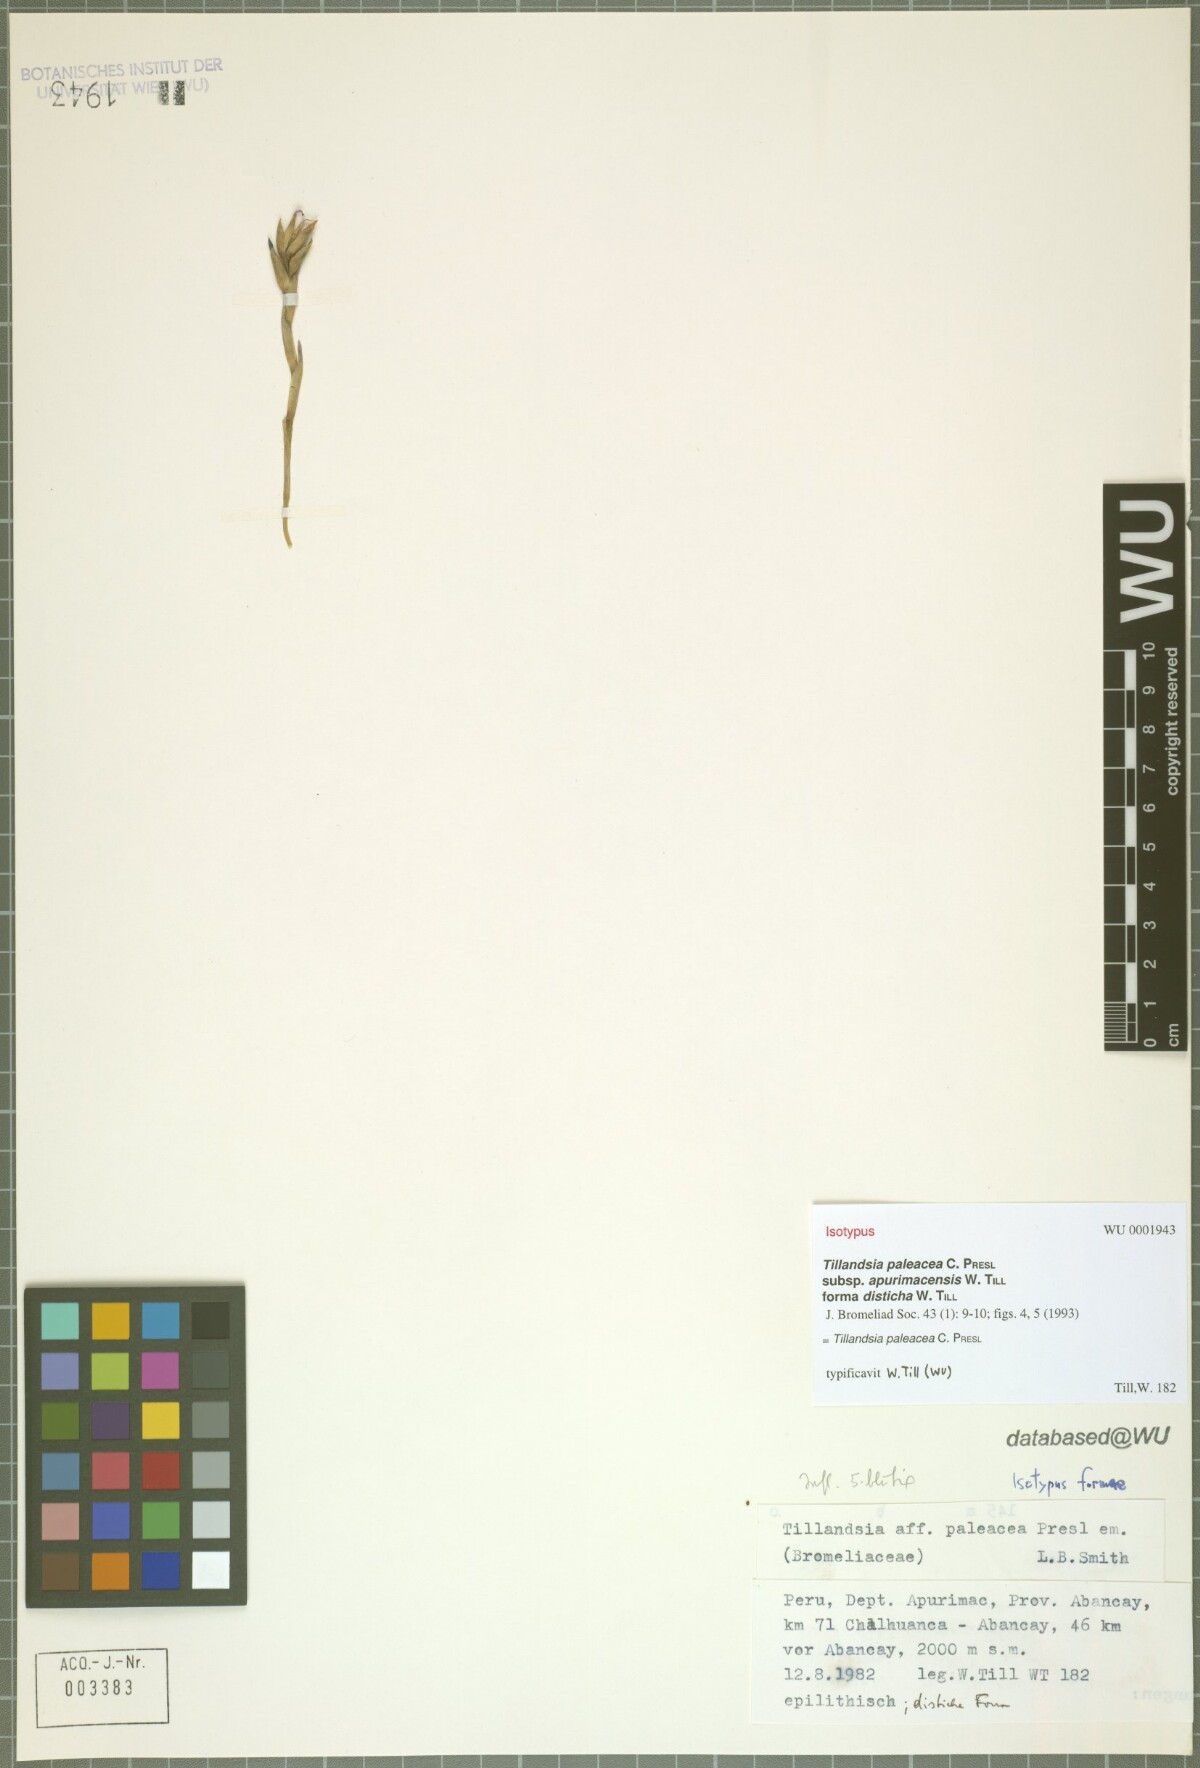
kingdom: Plantae
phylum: Tracheophyta
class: Liliopsida
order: Poales
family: Bromeliaceae
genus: Tillandsia
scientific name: Tillandsia paleacea
